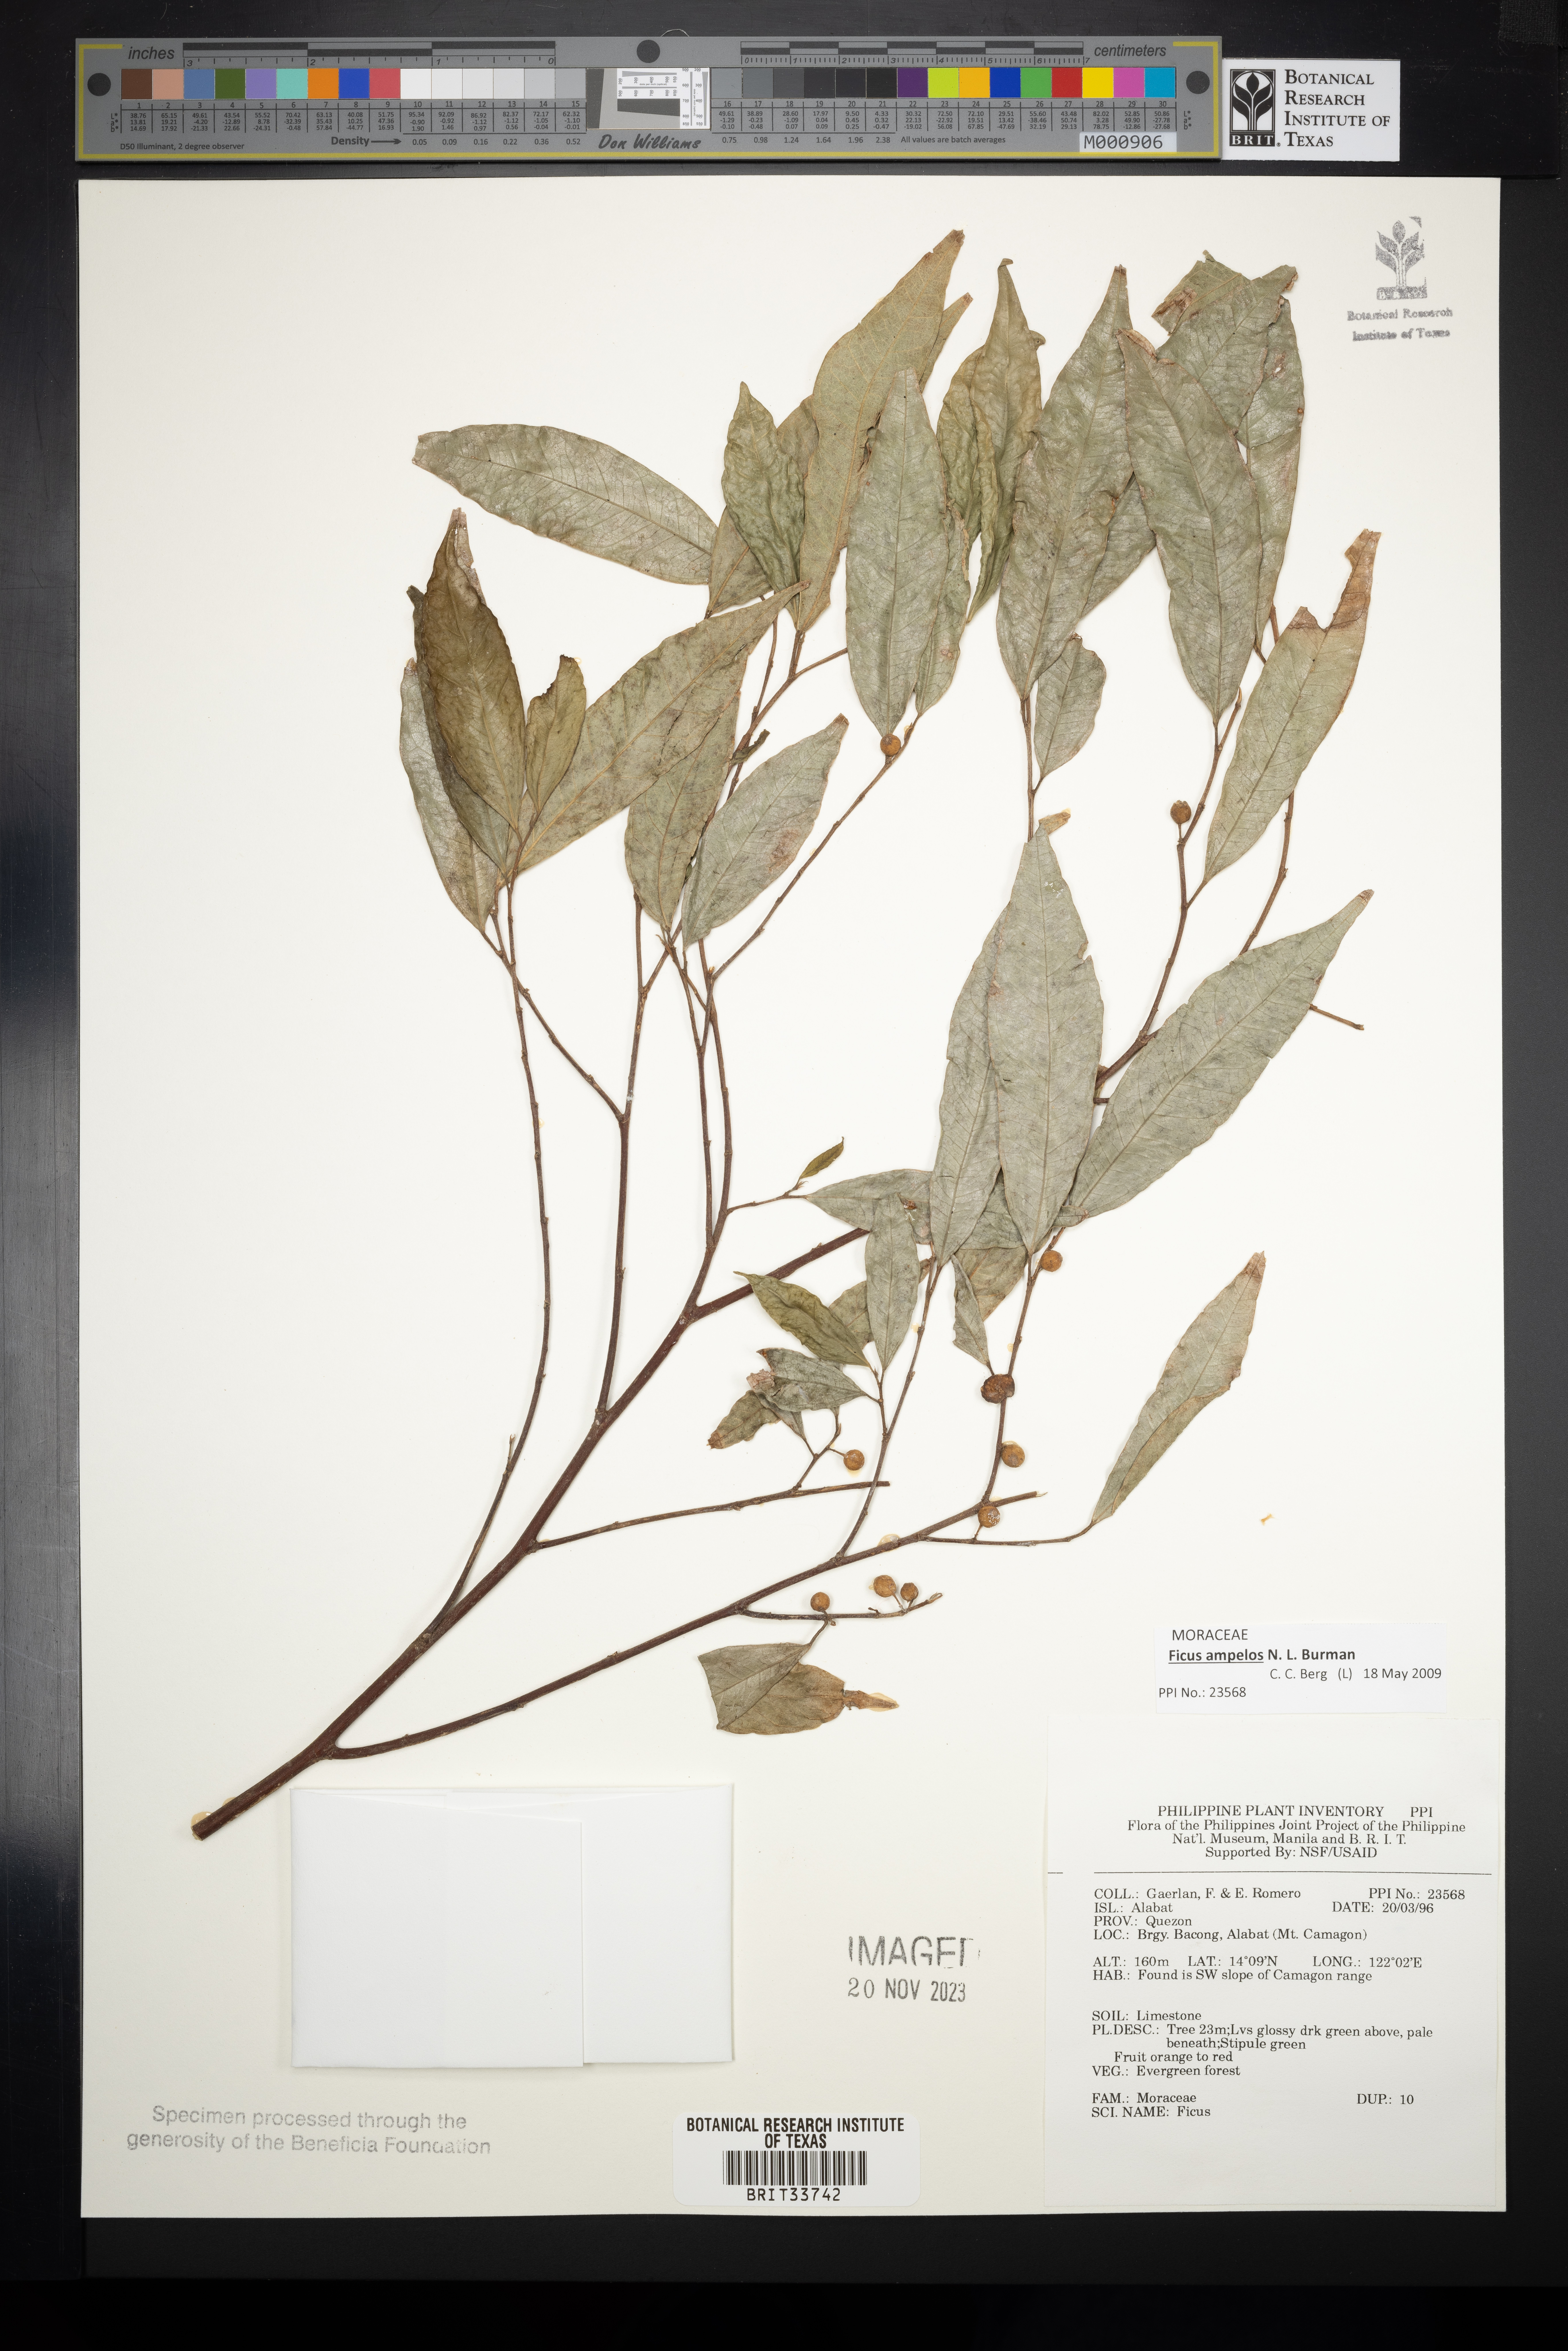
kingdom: Plantae
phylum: Tracheophyta
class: Magnoliopsida
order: Rosales
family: Moraceae
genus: Ficus
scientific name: Ficus
